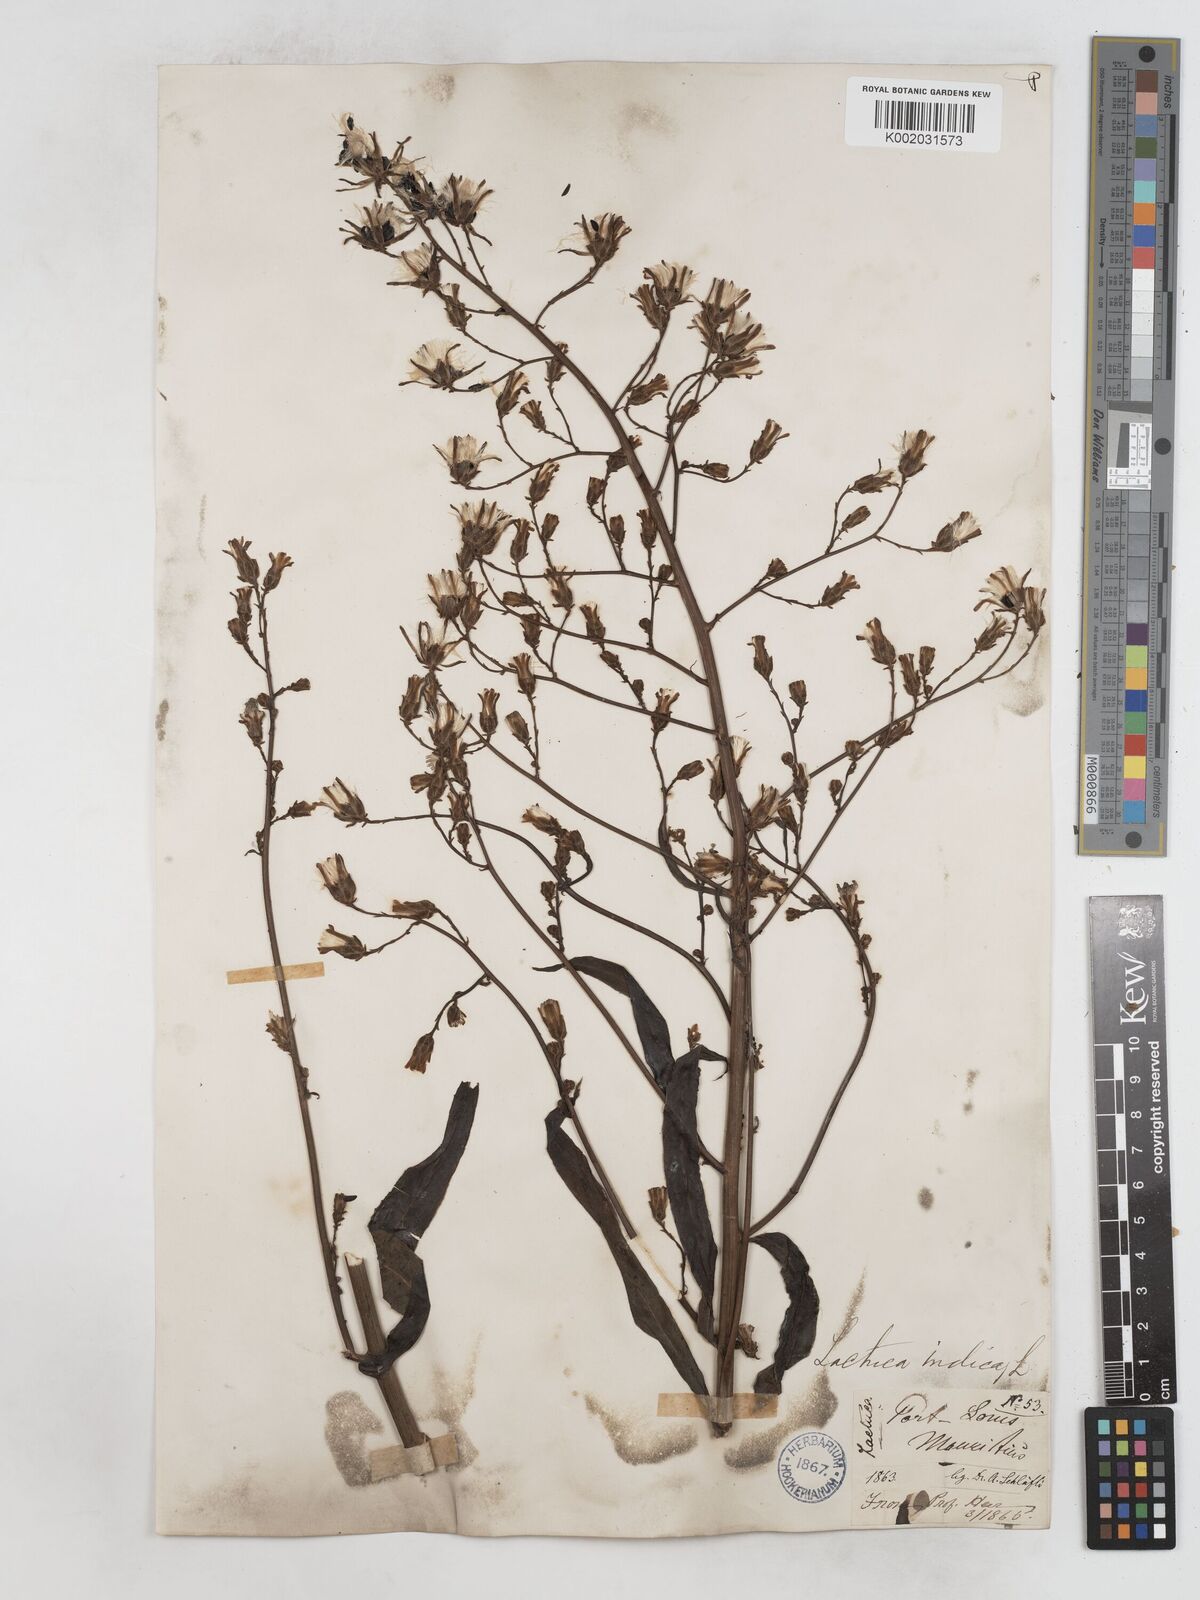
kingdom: Plantae
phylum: Tracheophyta
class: Magnoliopsida
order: Asterales
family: Asteraceae
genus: Lactuca
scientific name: Lactuca
